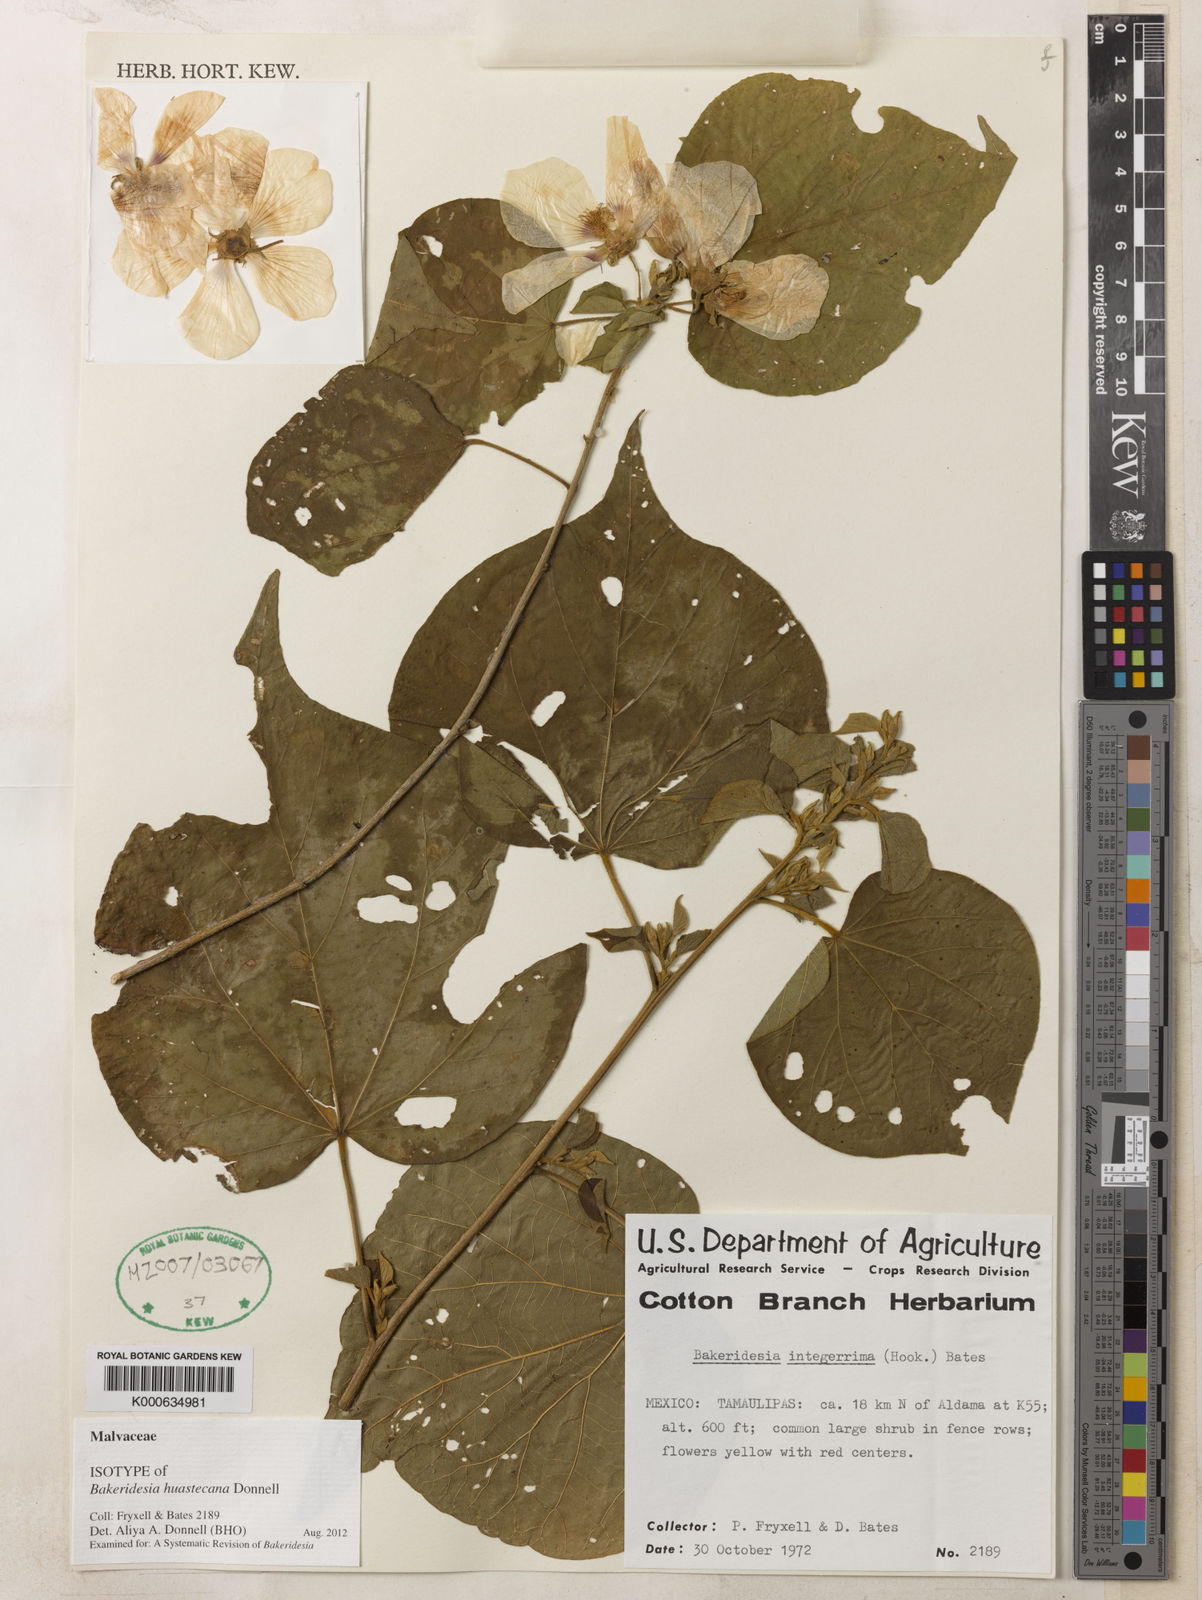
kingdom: Plantae
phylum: Tracheophyta
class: Magnoliopsida
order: Malvales
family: Malvaceae
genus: Bakeridesia
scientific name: Bakeridesia huastecana
